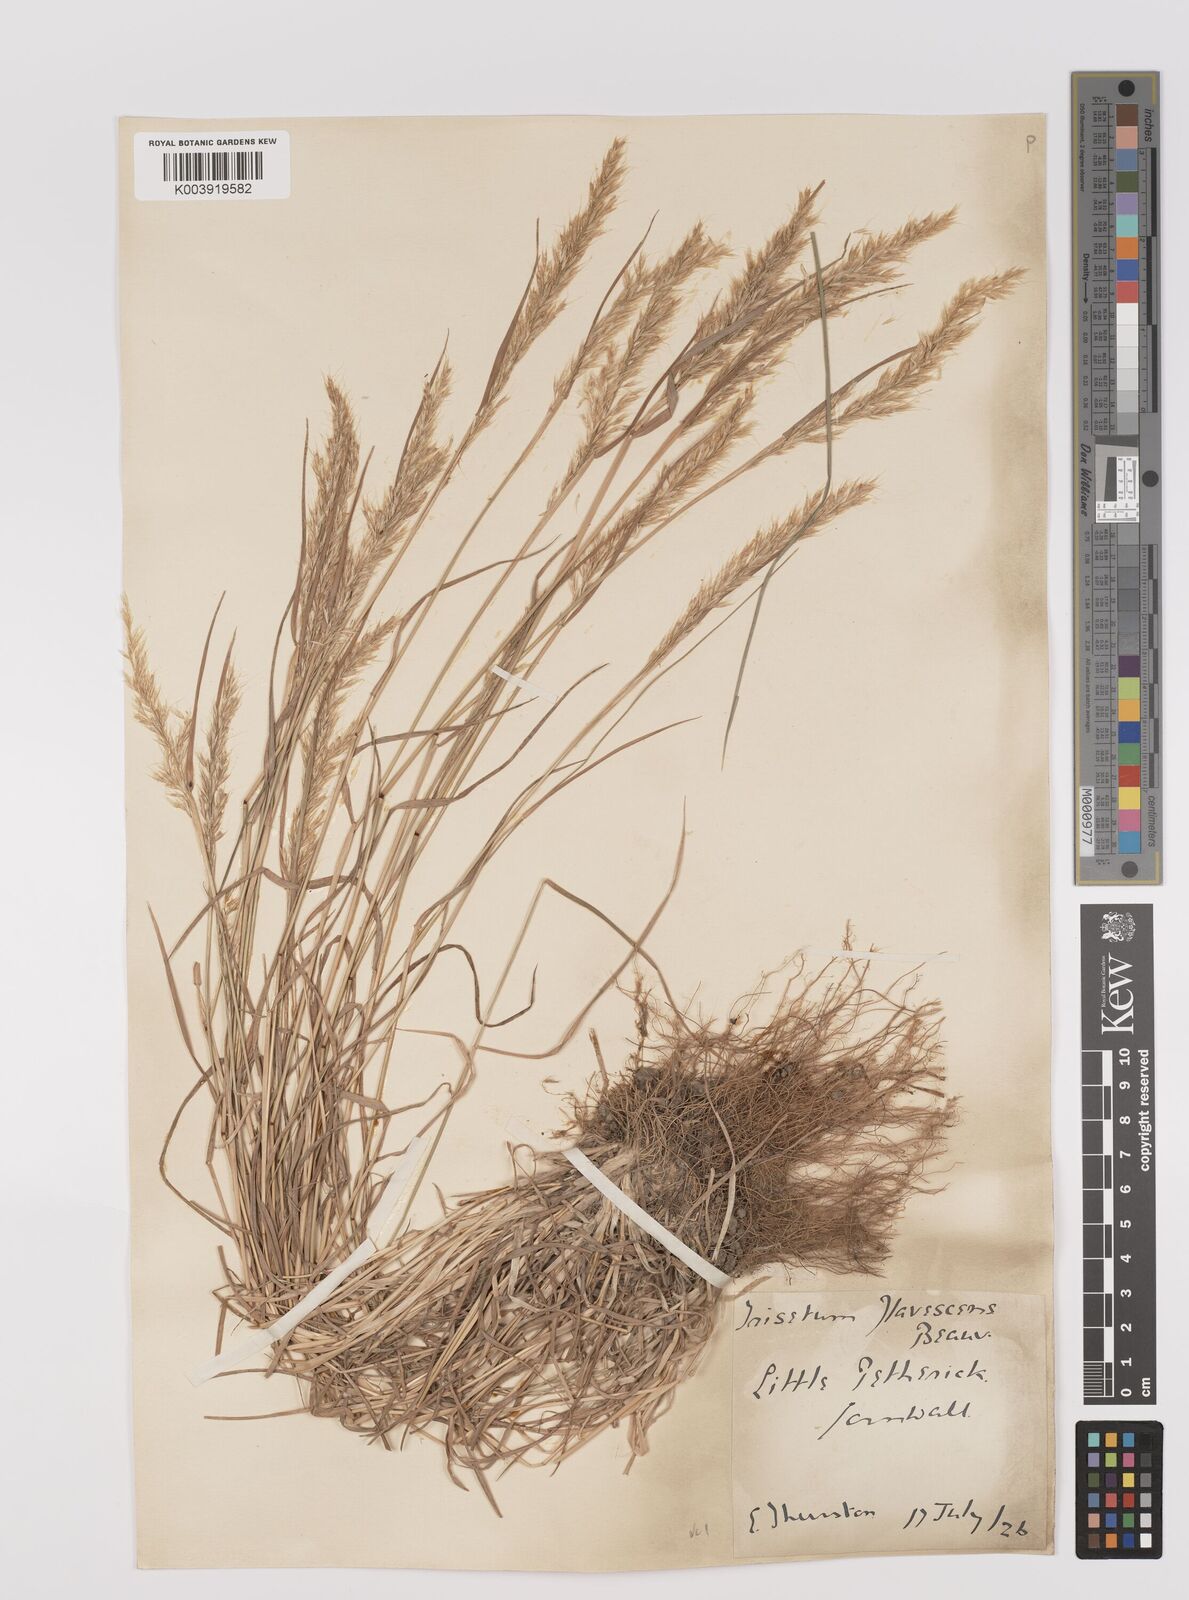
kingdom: Plantae
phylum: Tracheophyta
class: Liliopsida
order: Poales
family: Poaceae
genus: Trisetum
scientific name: Trisetum flavescens
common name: Yellow oat-grass
